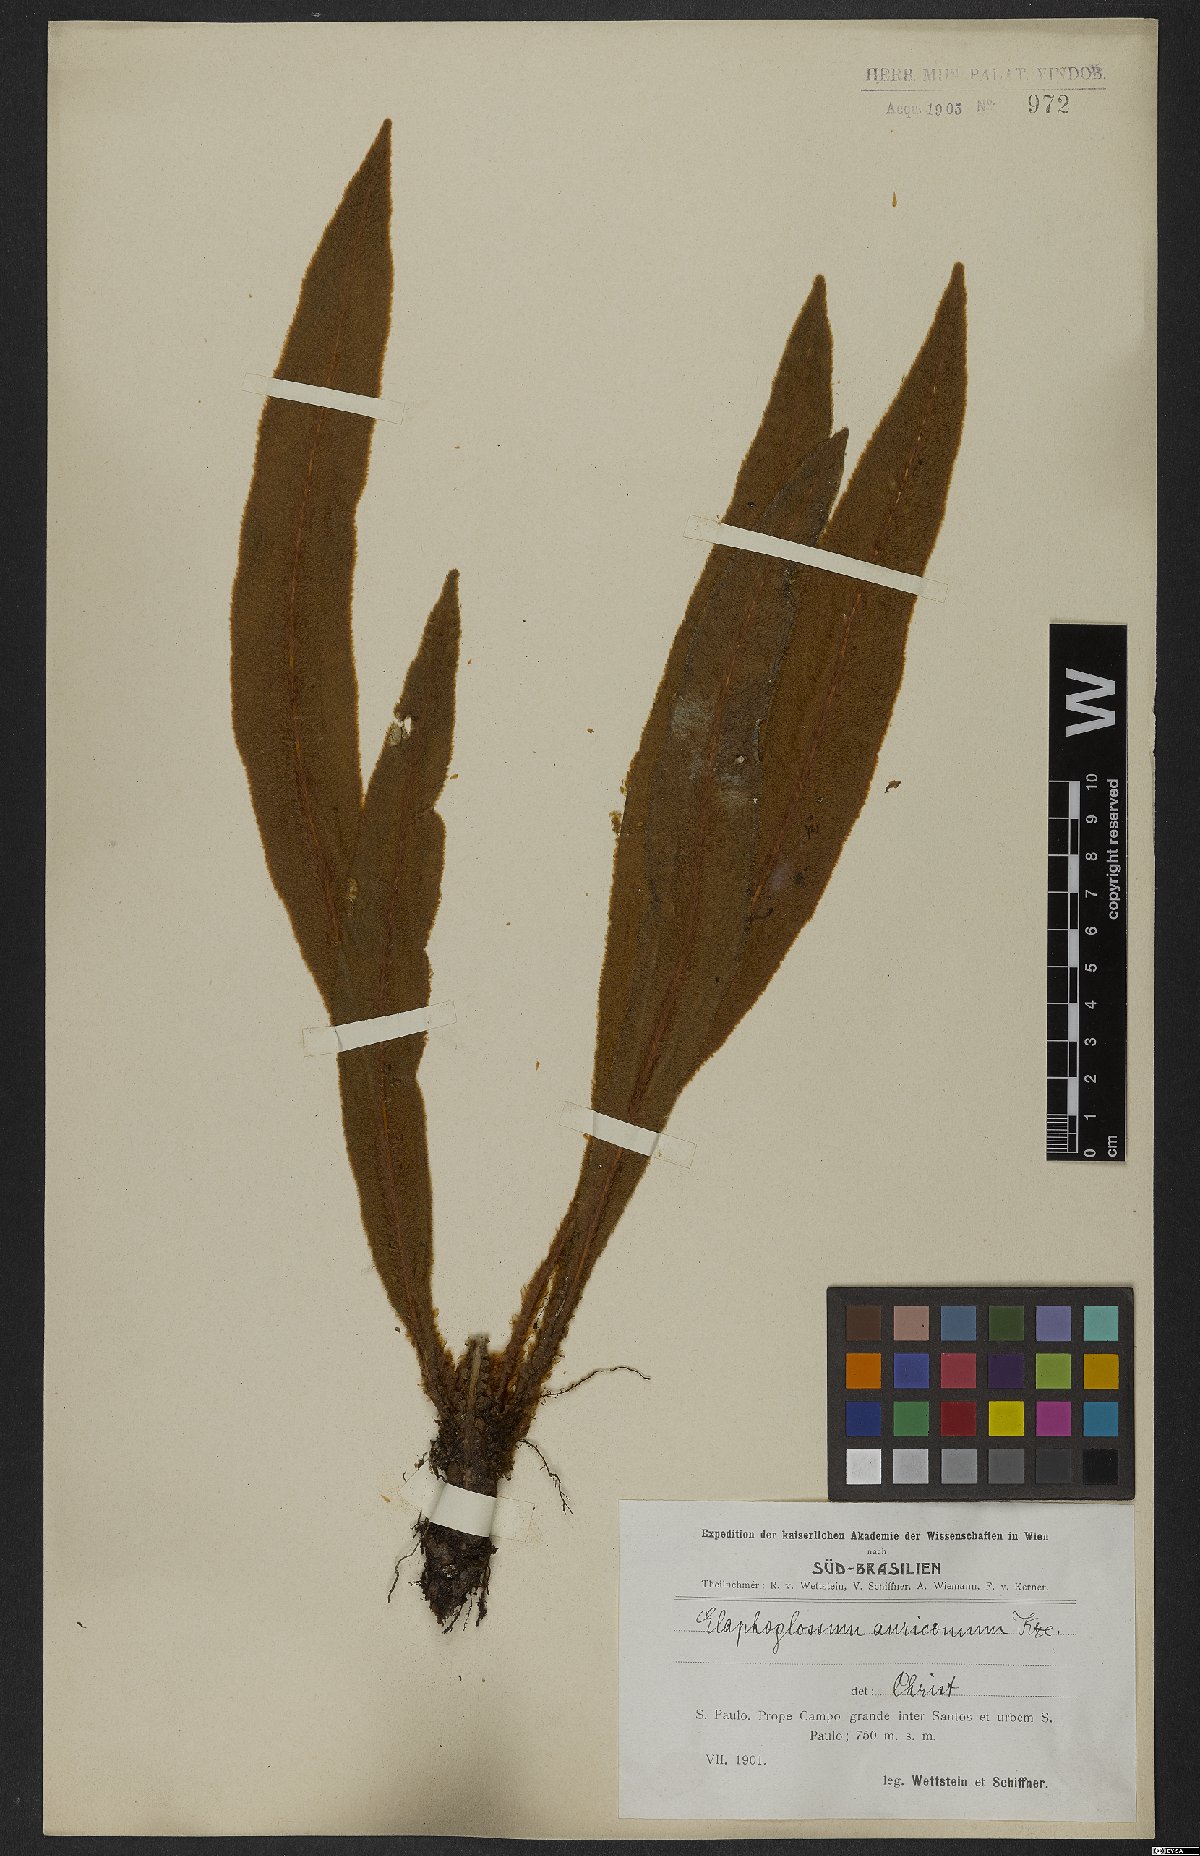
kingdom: Plantae
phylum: Tracheophyta
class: Polypodiopsida
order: Polypodiales
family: Dryopteridaceae
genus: Elaphoglossum
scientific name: Elaphoglossum auricomum
